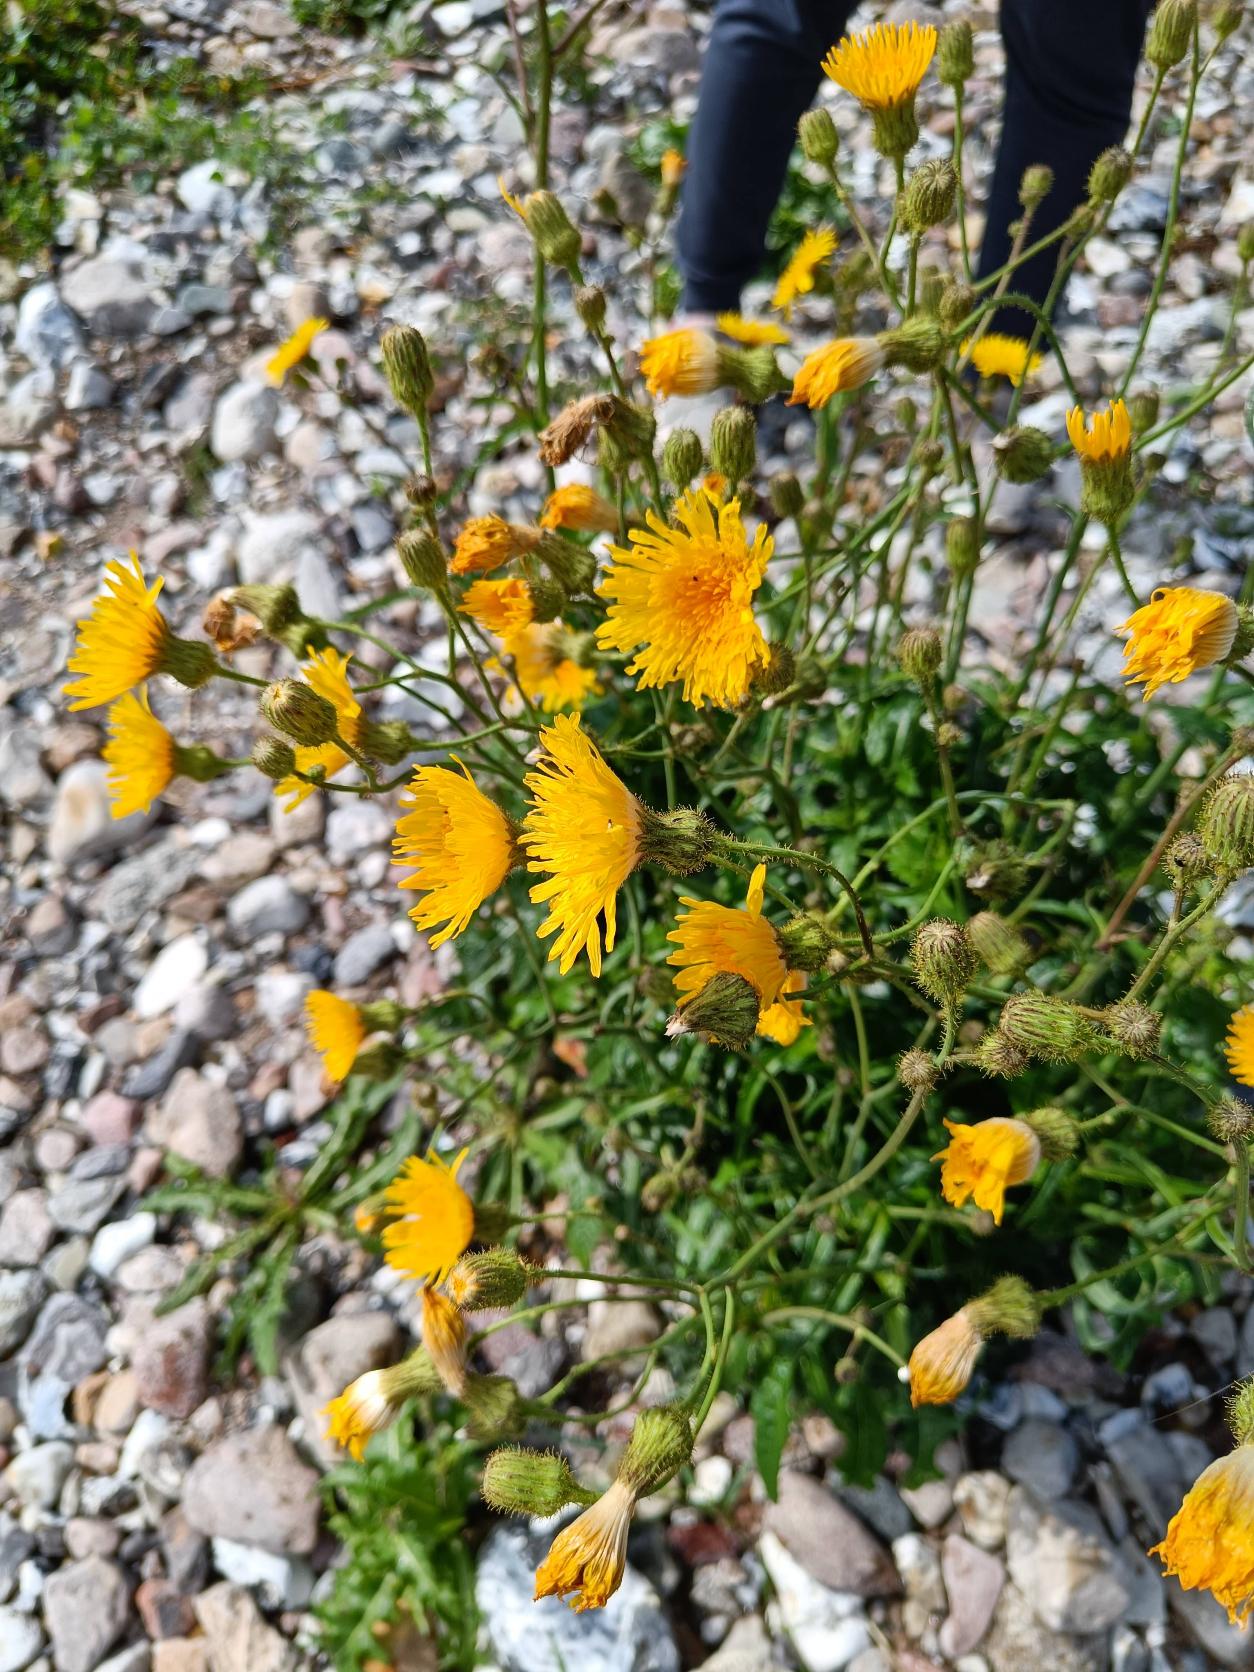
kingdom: Plantae
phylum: Tracheophyta
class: Magnoliopsida
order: Asterales
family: Asteraceae
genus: Sonchus
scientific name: Sonchus arvensis
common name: Ager-svinemælk
